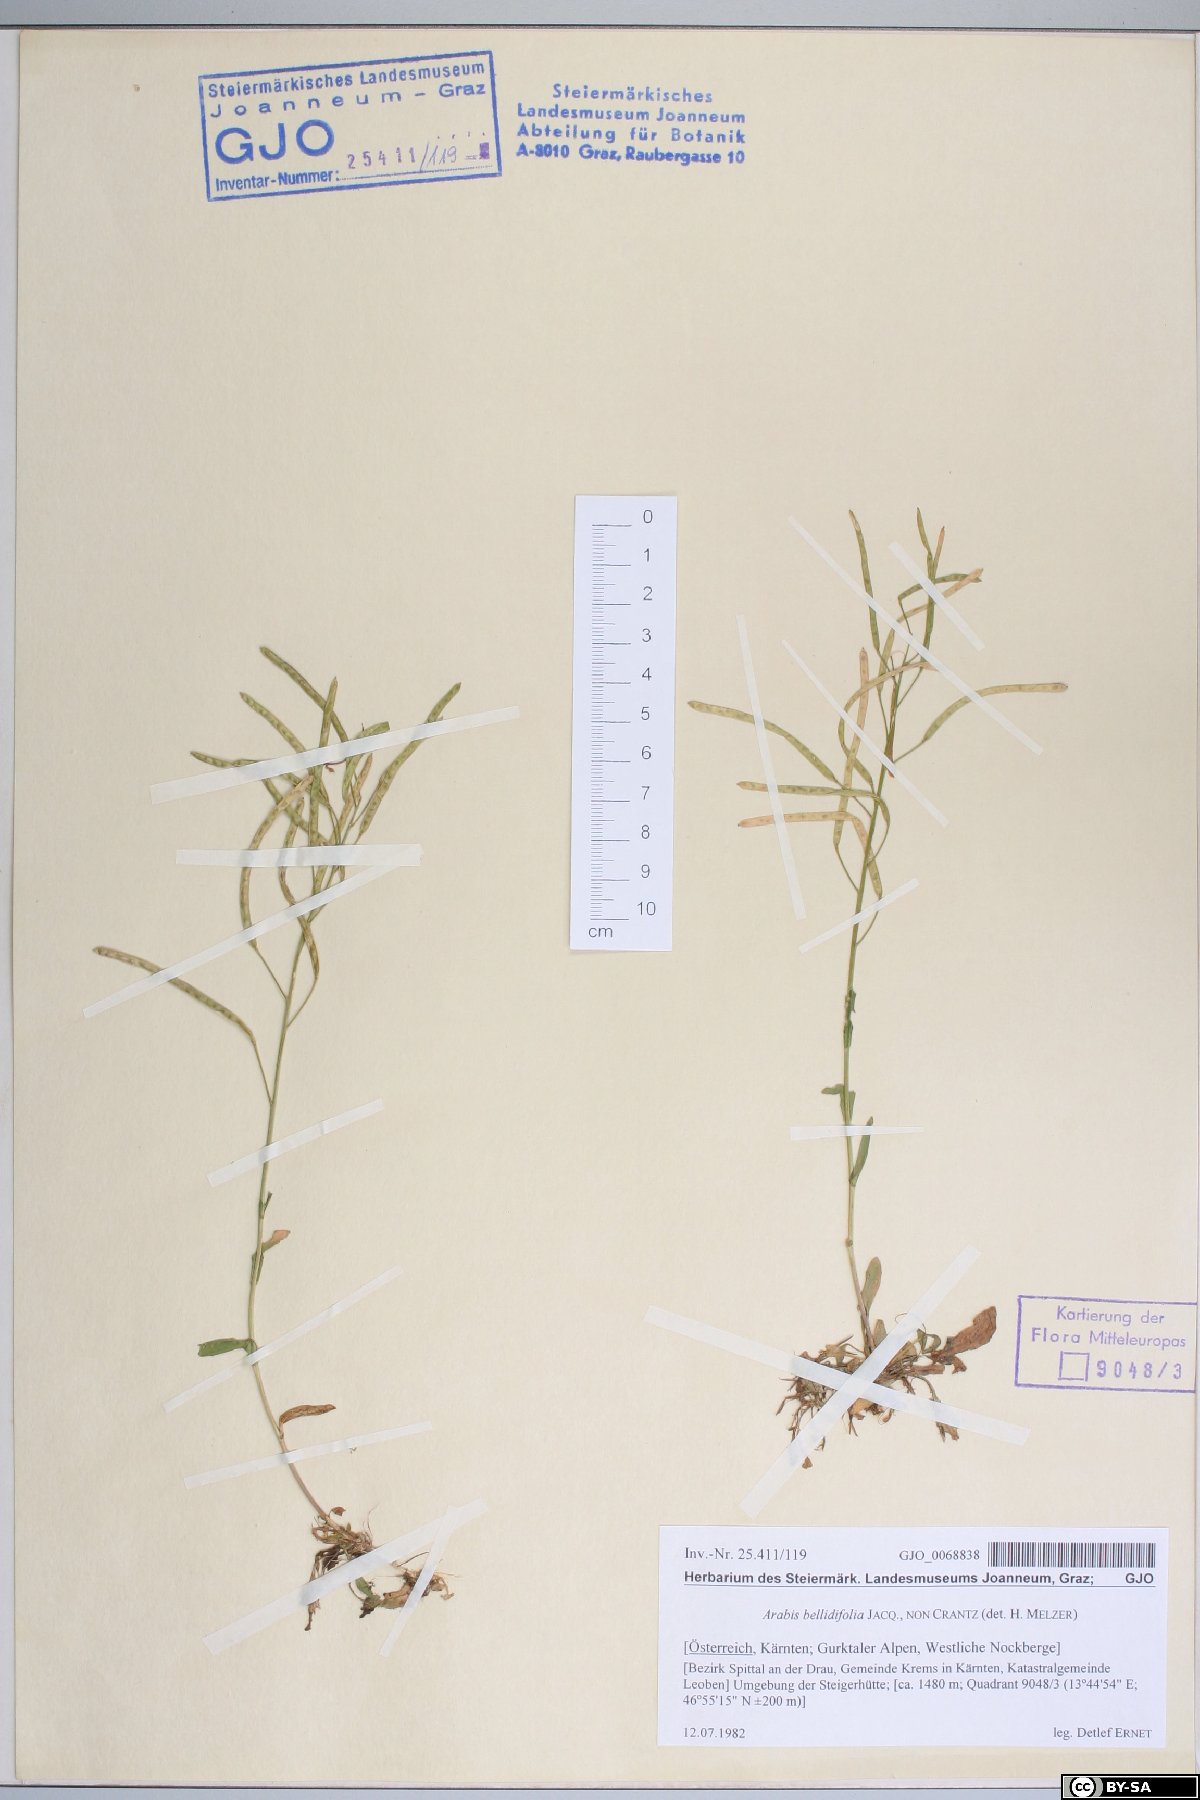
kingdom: Plantae
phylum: Tracheophyta
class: Magnoliopsida
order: Brassicales
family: Brassicaceae
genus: Arabis
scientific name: Arabis soyeri
